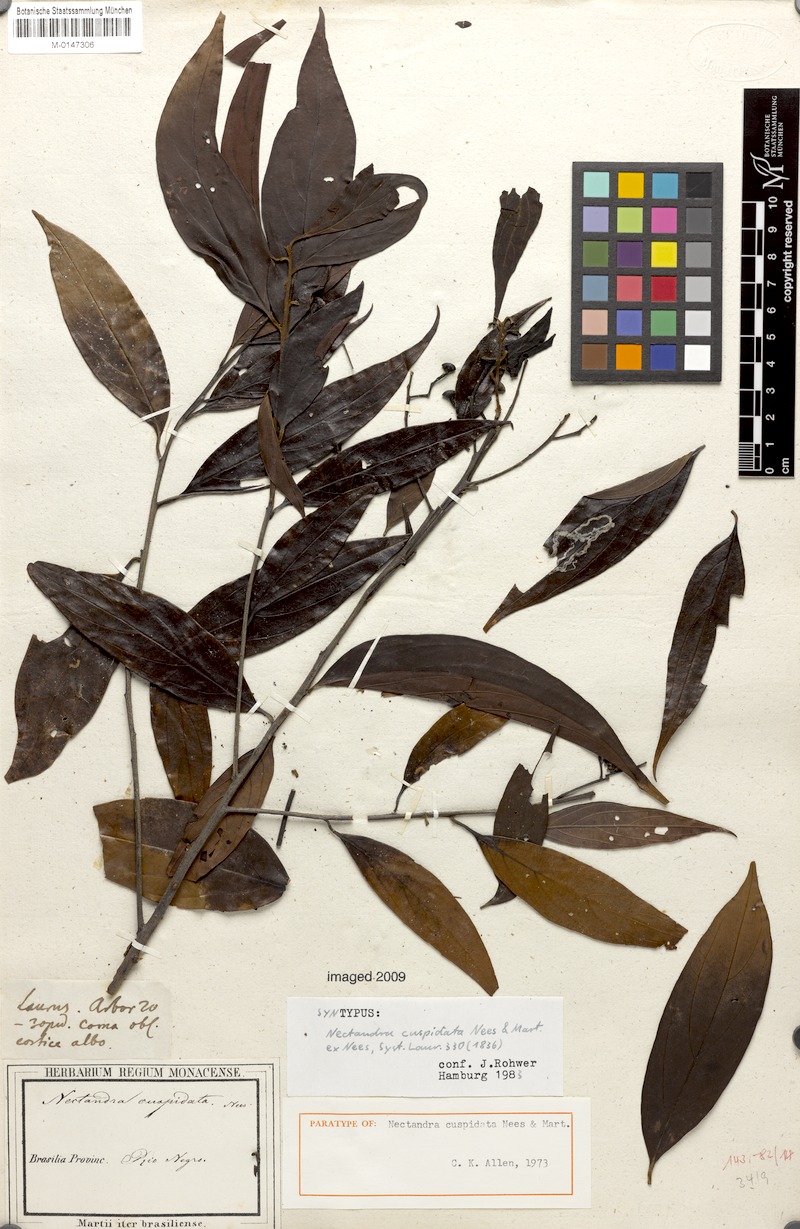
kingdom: Plantae
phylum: Tracheophyta
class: Magnoliopsida
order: Laurales
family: Lauraceae
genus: Nectandra
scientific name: Nectandra cuspidata
